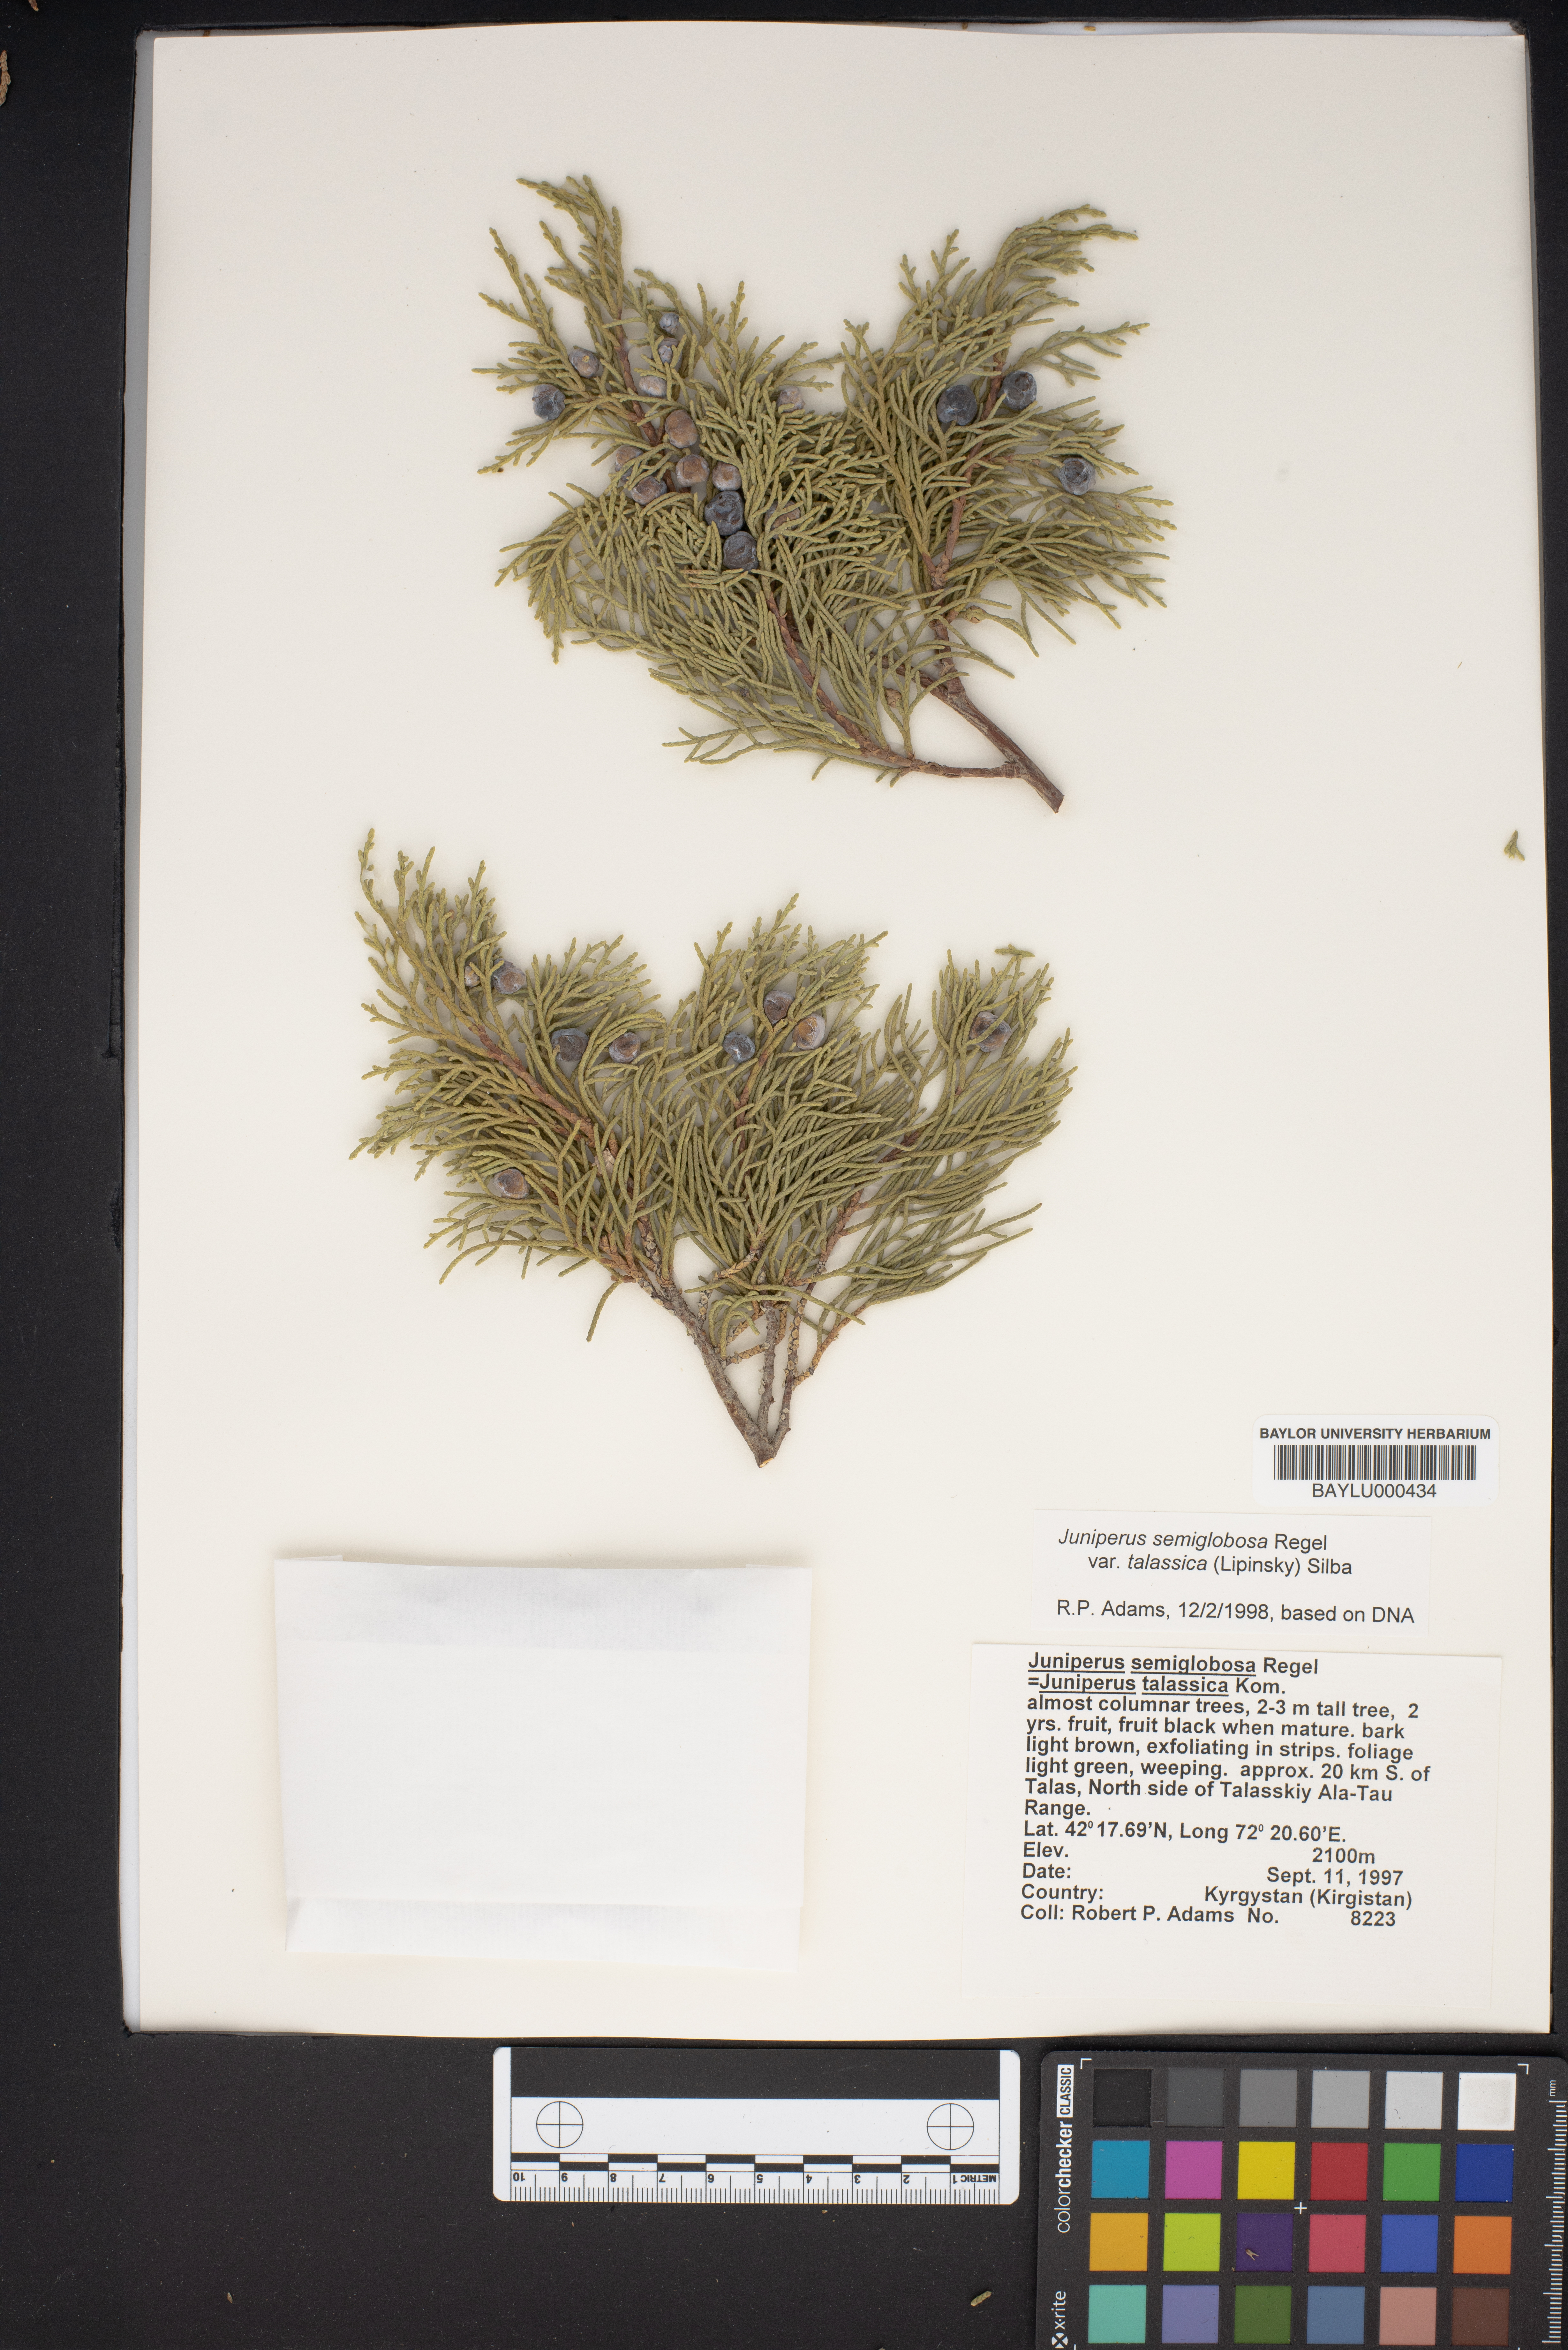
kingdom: Plantae
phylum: Tracheophyta
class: Pinopsida
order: Pinales
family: Cupressaceae
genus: Juniperus
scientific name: Juniperus semiglobosa
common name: Pencil cedar
